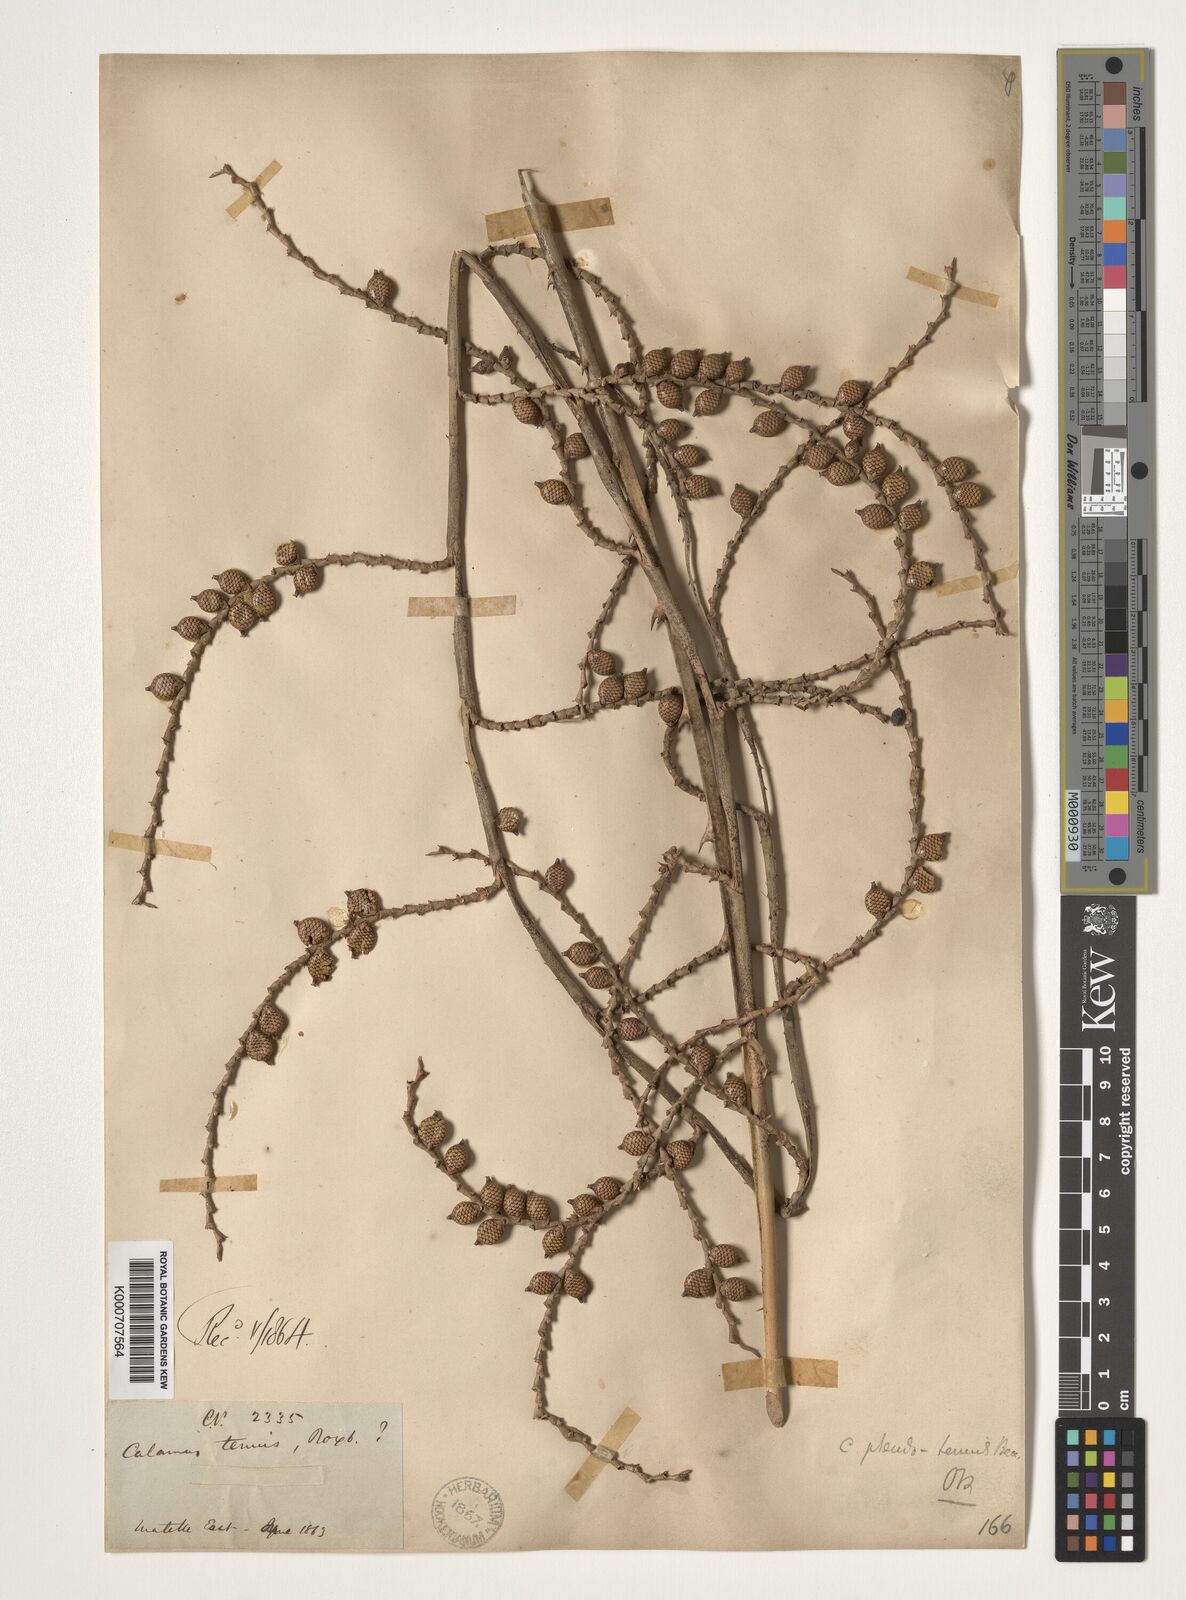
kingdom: Plantae
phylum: Tracheophyta
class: Liliopsida
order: Arecales
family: Arecaceae
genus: Calamus
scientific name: Calamus pseudotenuis
